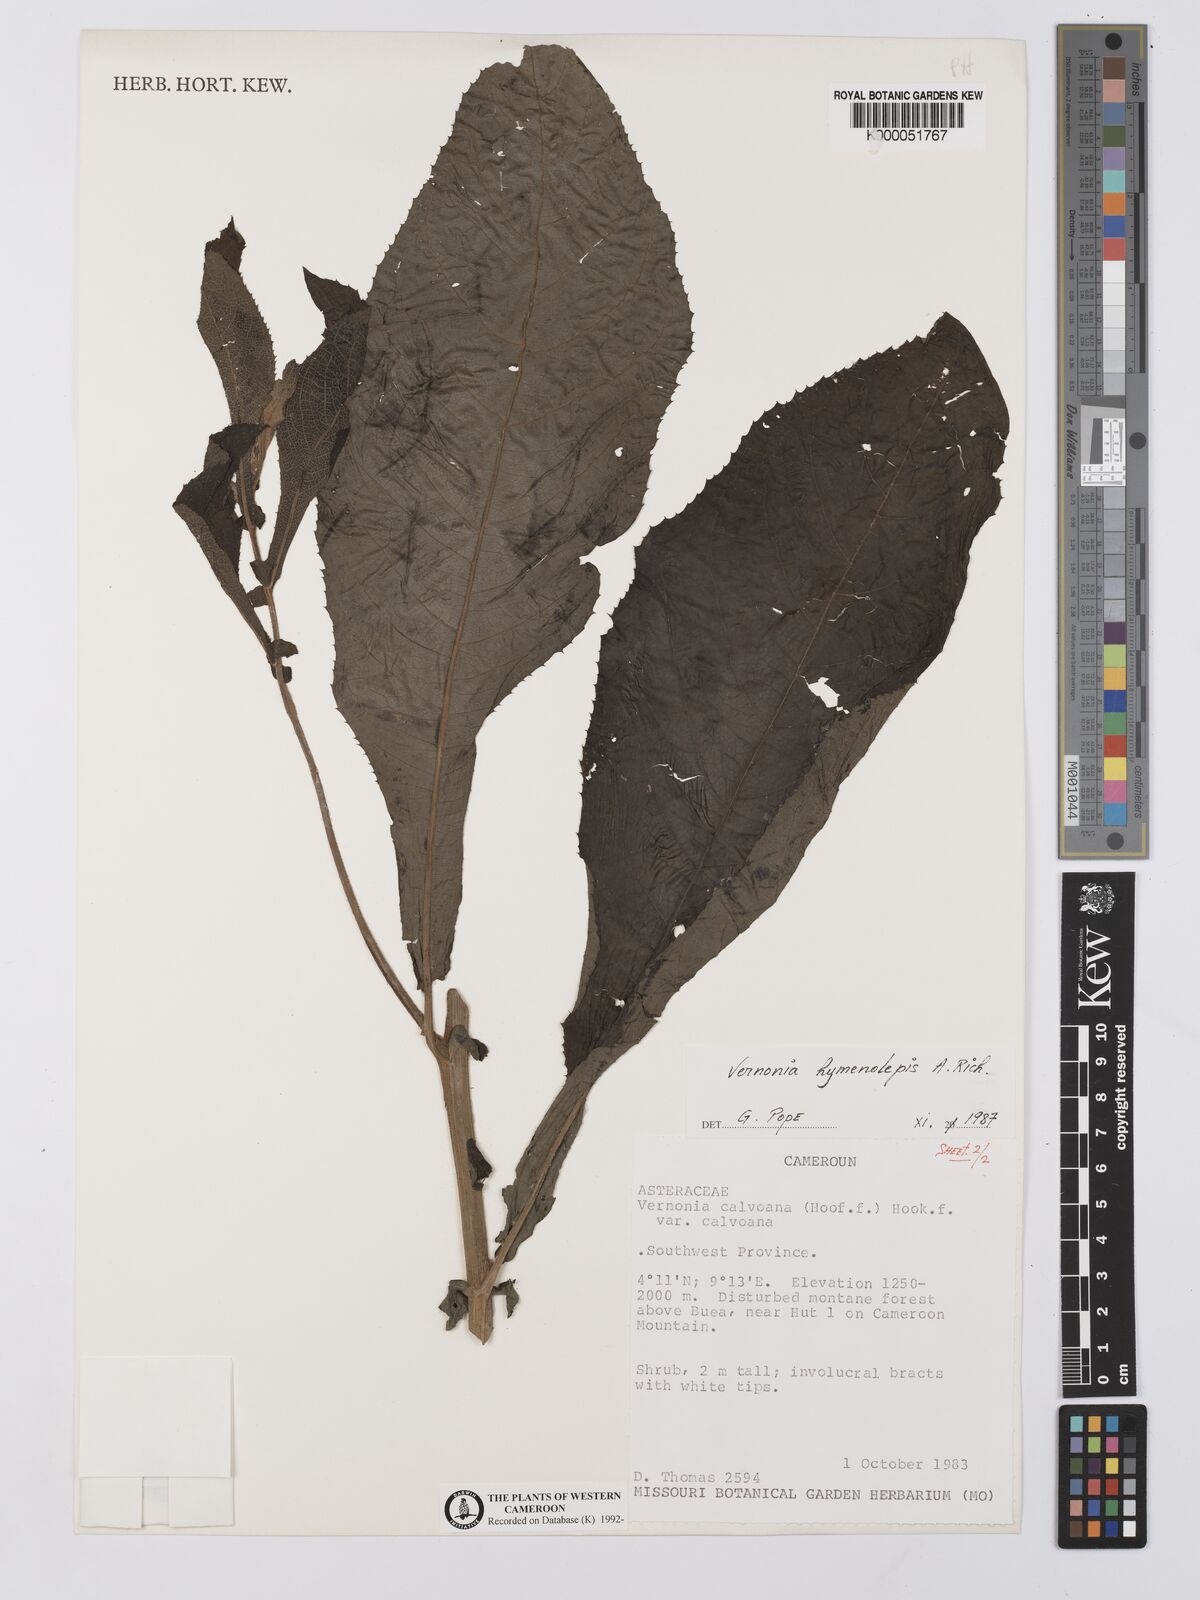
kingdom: Plantae
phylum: Tracheophyta
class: Magnoliopsida
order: Asterales
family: Asteraceae
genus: Baccharoides
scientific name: Baccharoides hymenolepis
